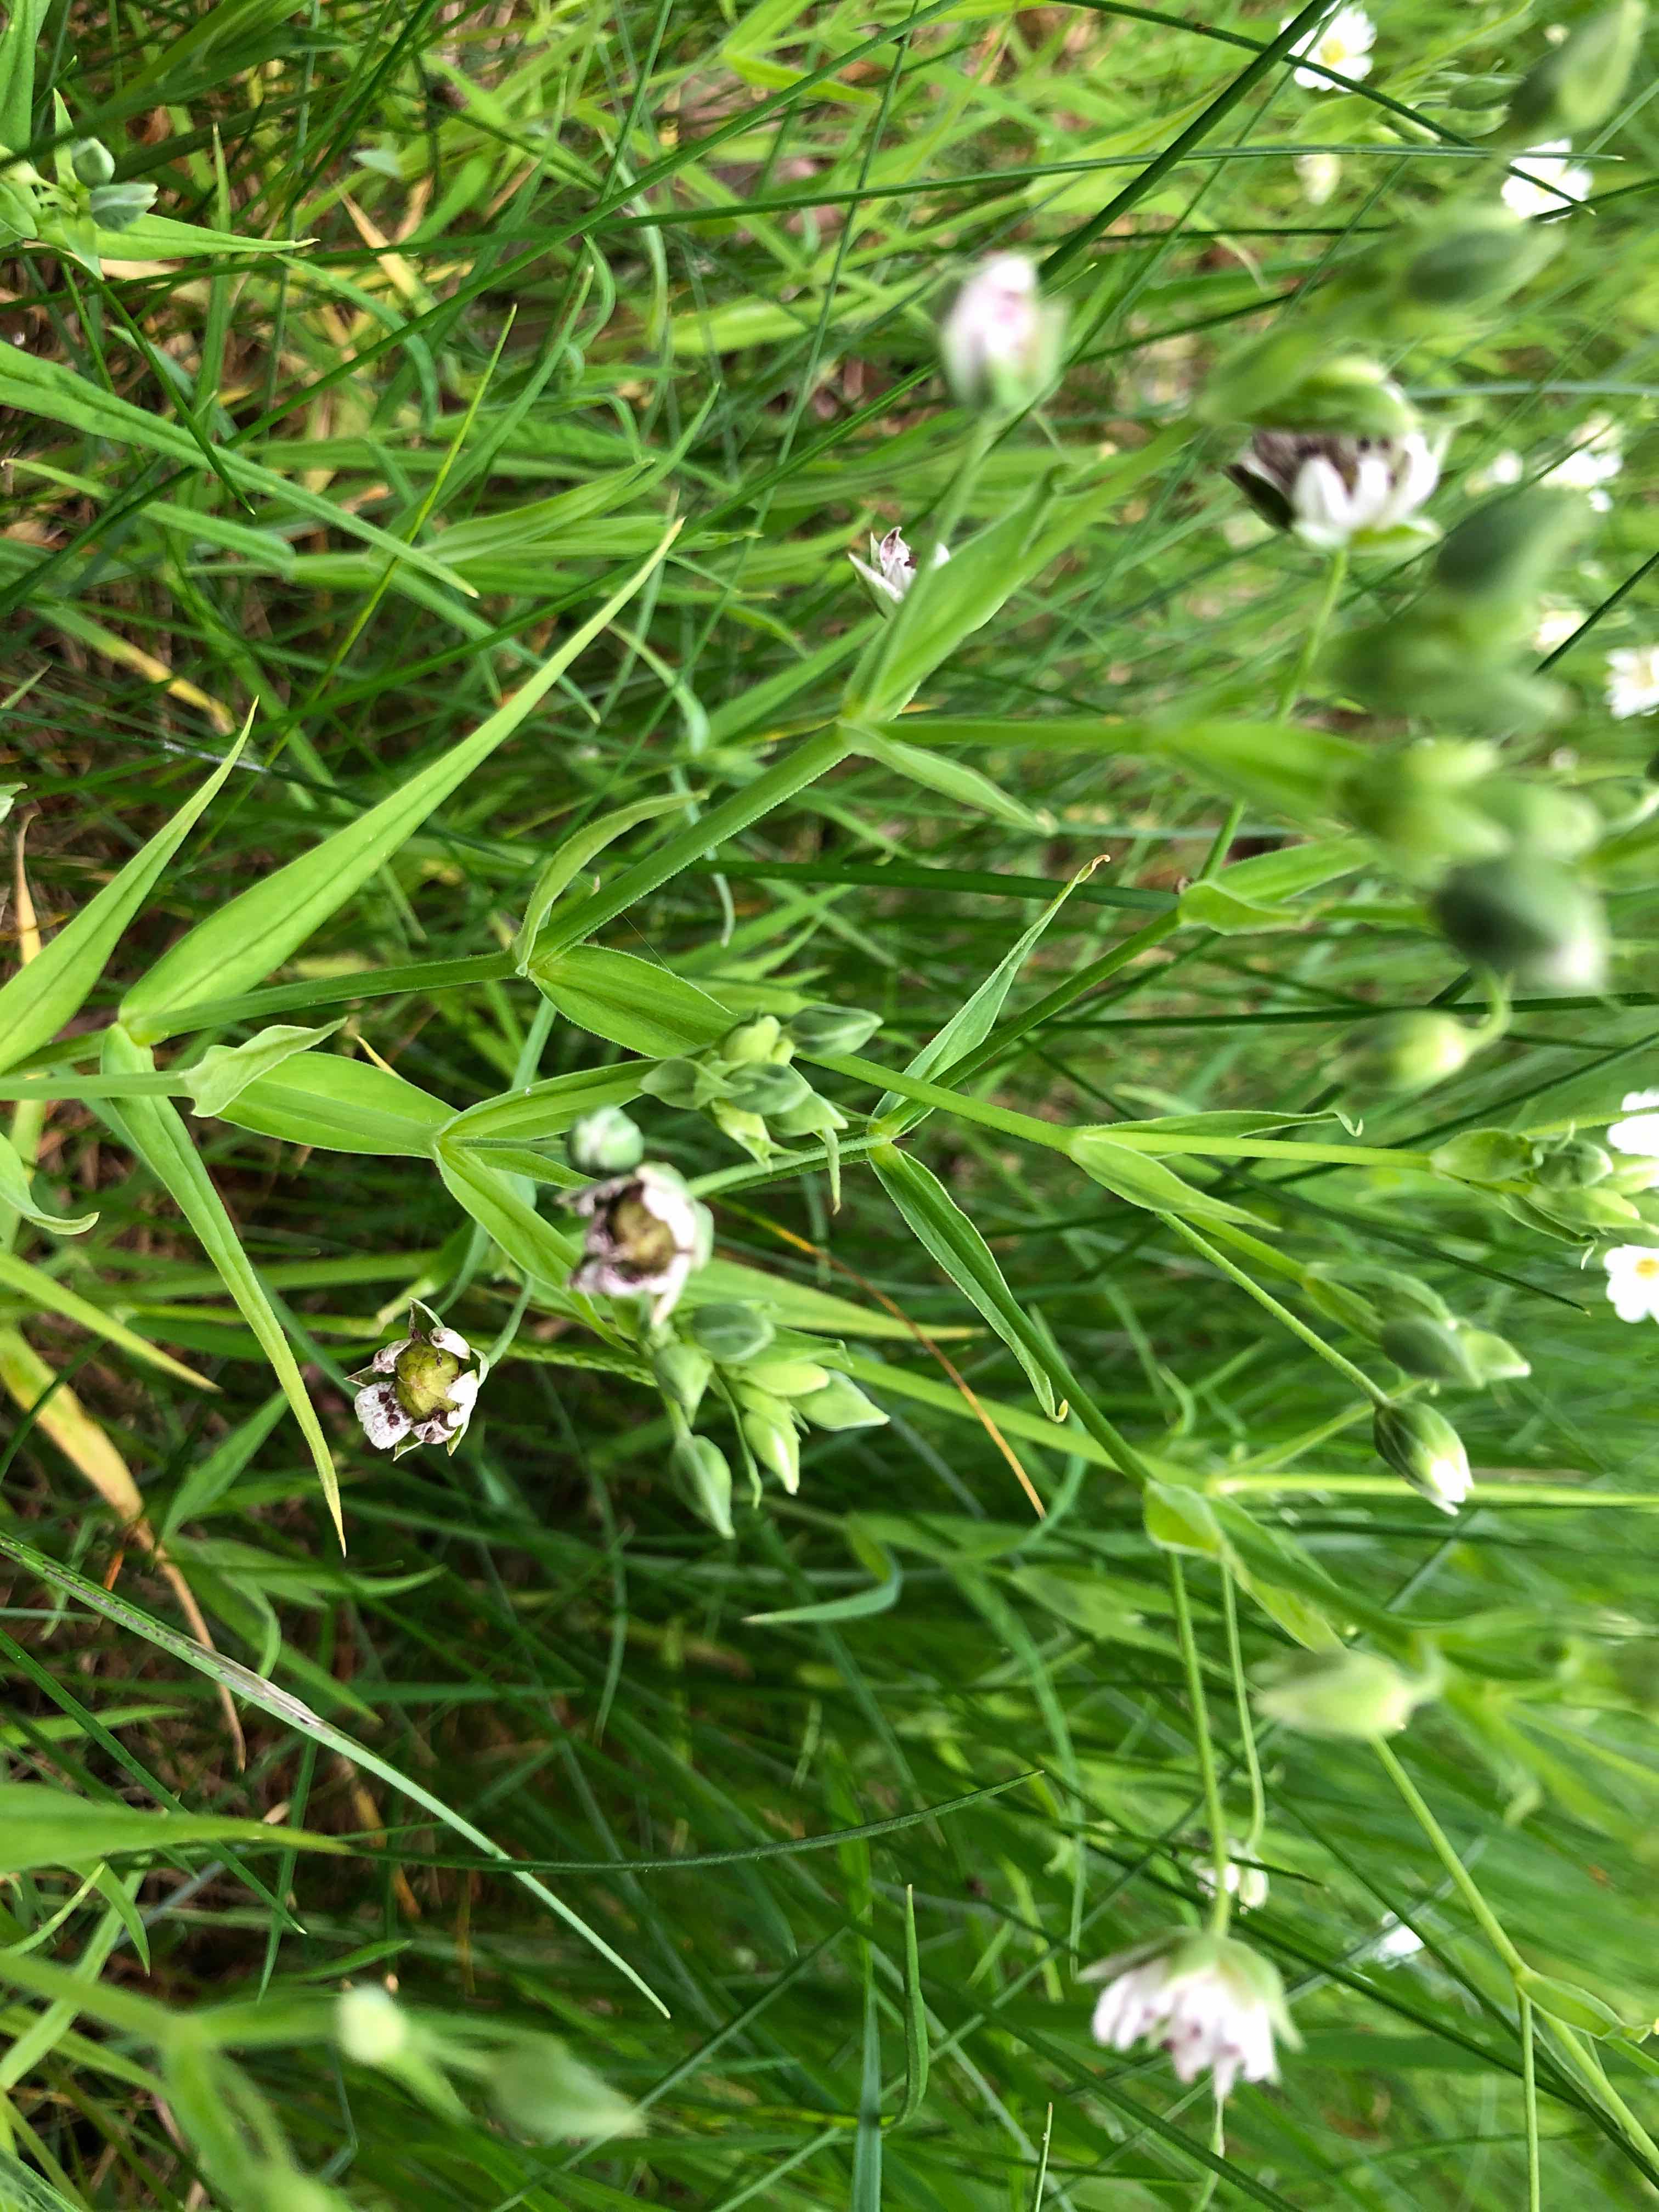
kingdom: Fungi
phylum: Basidiomycota
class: Microbotryomycetes
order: Microbotryales
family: Microbotryaceae
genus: Microbotryum
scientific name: Microbotryum stellariae
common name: fladstjerne-støvbladrust
